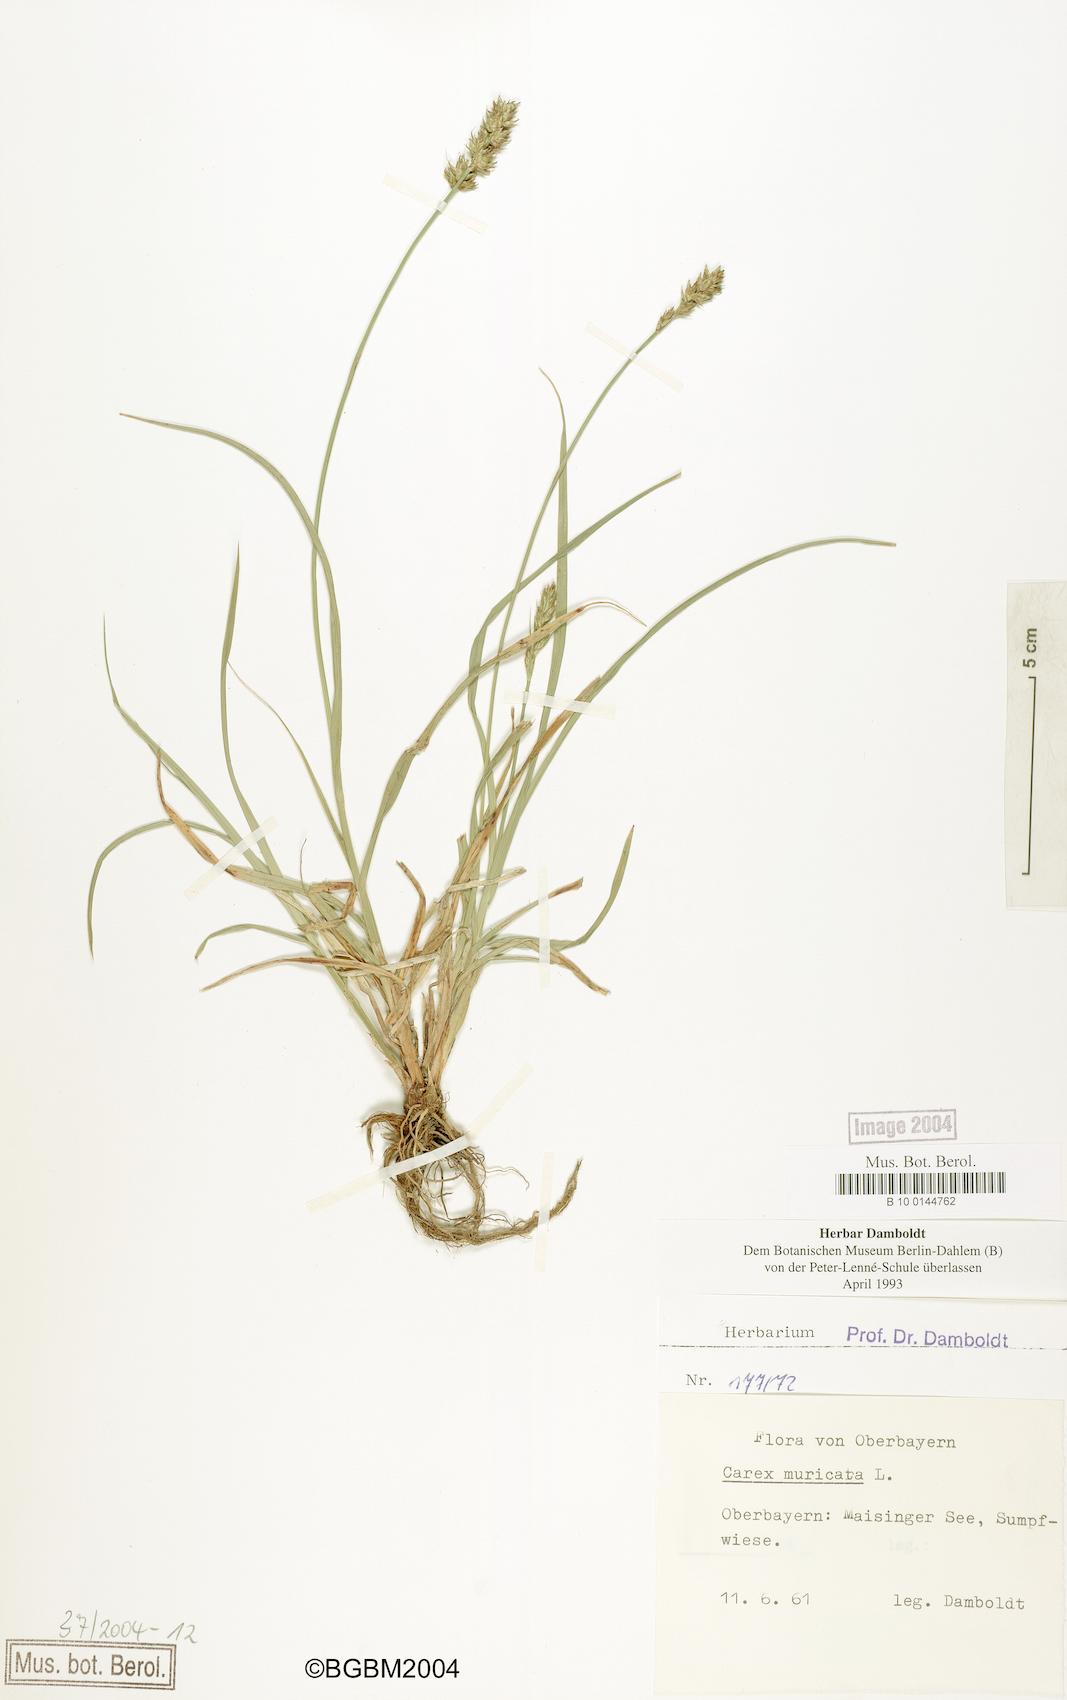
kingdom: Plantae
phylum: Tracheophyta
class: Liliopsida
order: Poales
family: Cyperaceae
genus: Carex
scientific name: Carex spicata
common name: Spiked sedge
